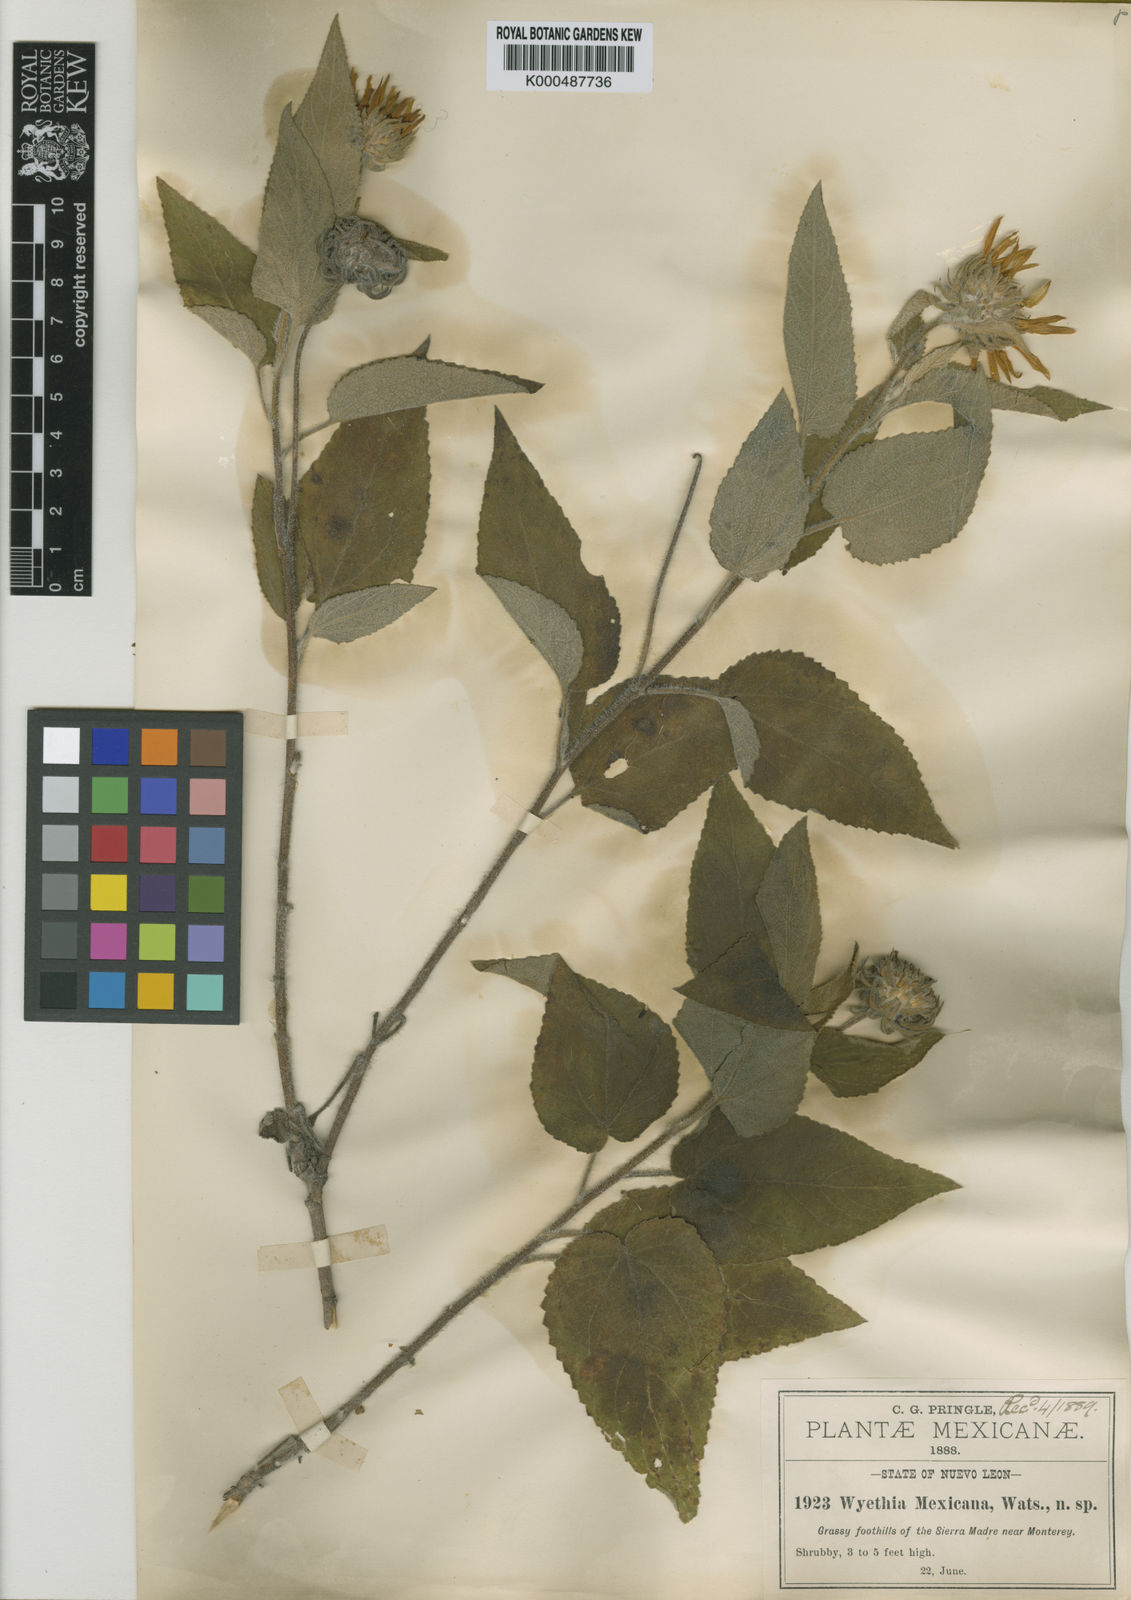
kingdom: Plantae
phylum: Tracheophyta
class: Magnoliopsida
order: Asterales
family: Asteraceae
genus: Vigethia
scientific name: Vigethia mexicana
